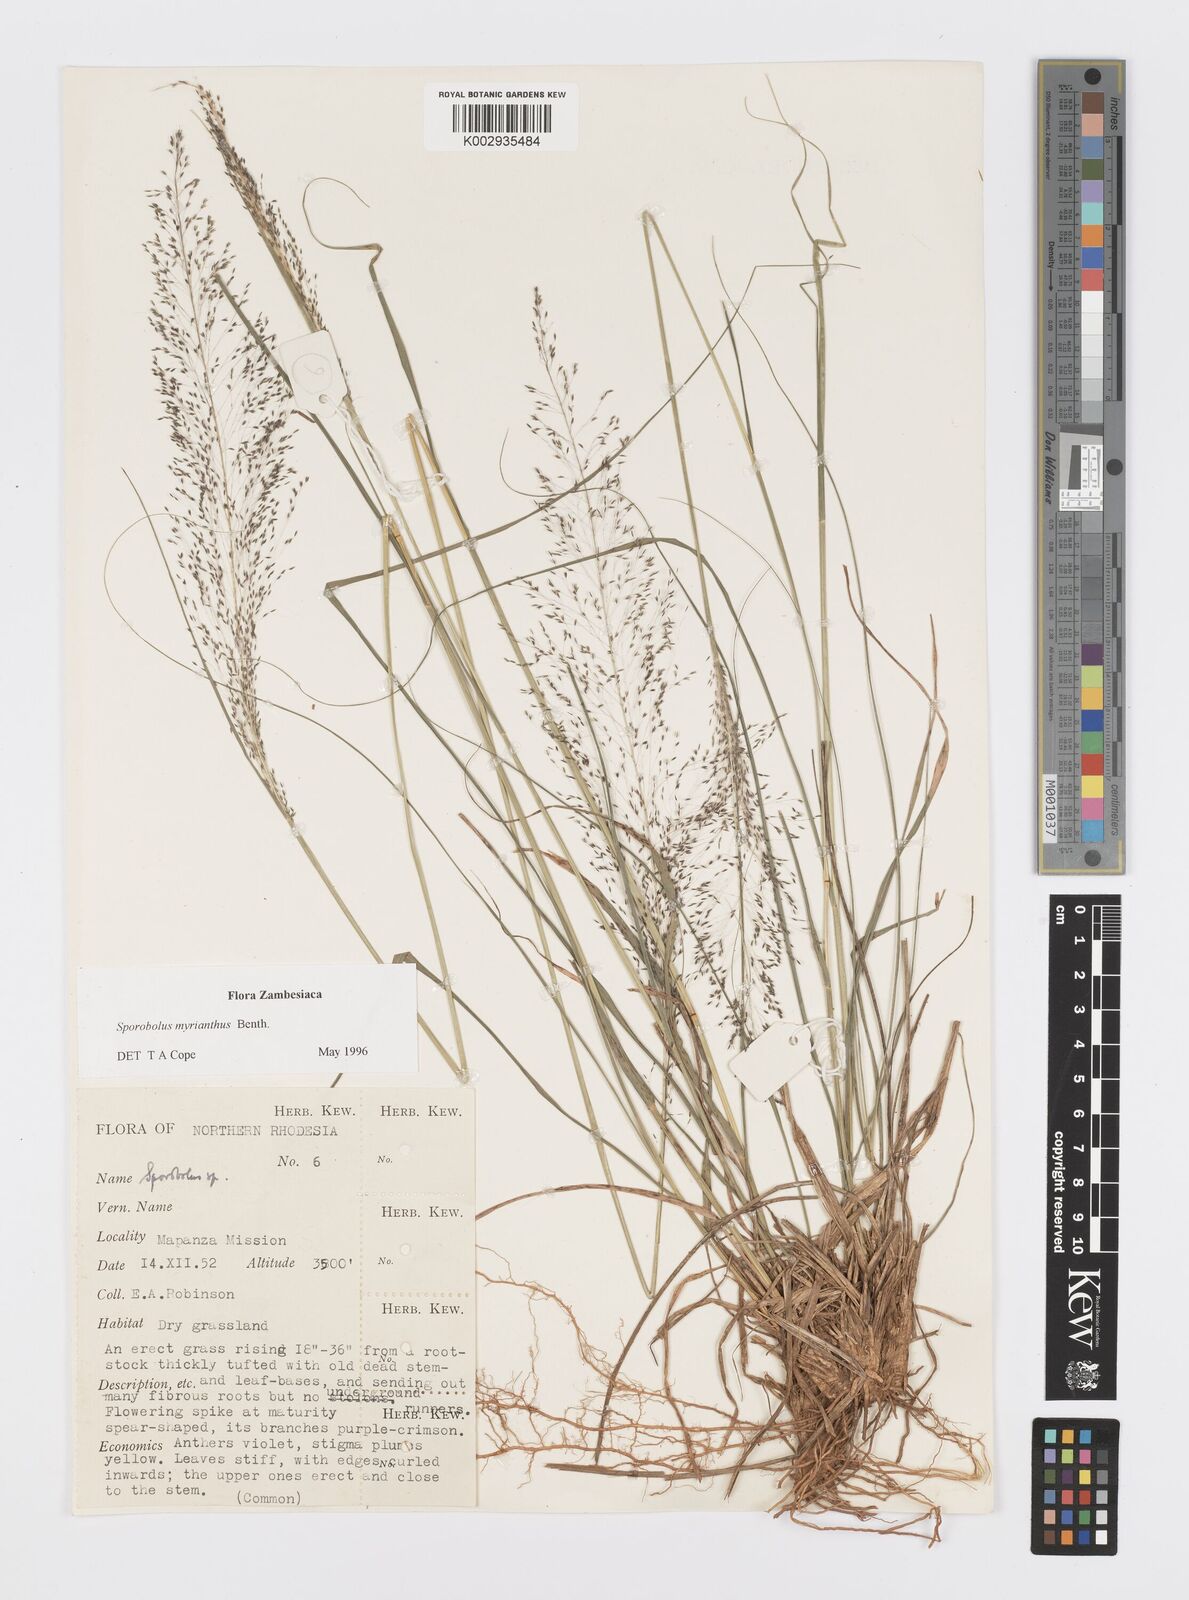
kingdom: Plantae
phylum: Tracheophyta
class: Liliopsida
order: Poales
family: Poaceae
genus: Sporobolus
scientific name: Sporobolus myrianthus
